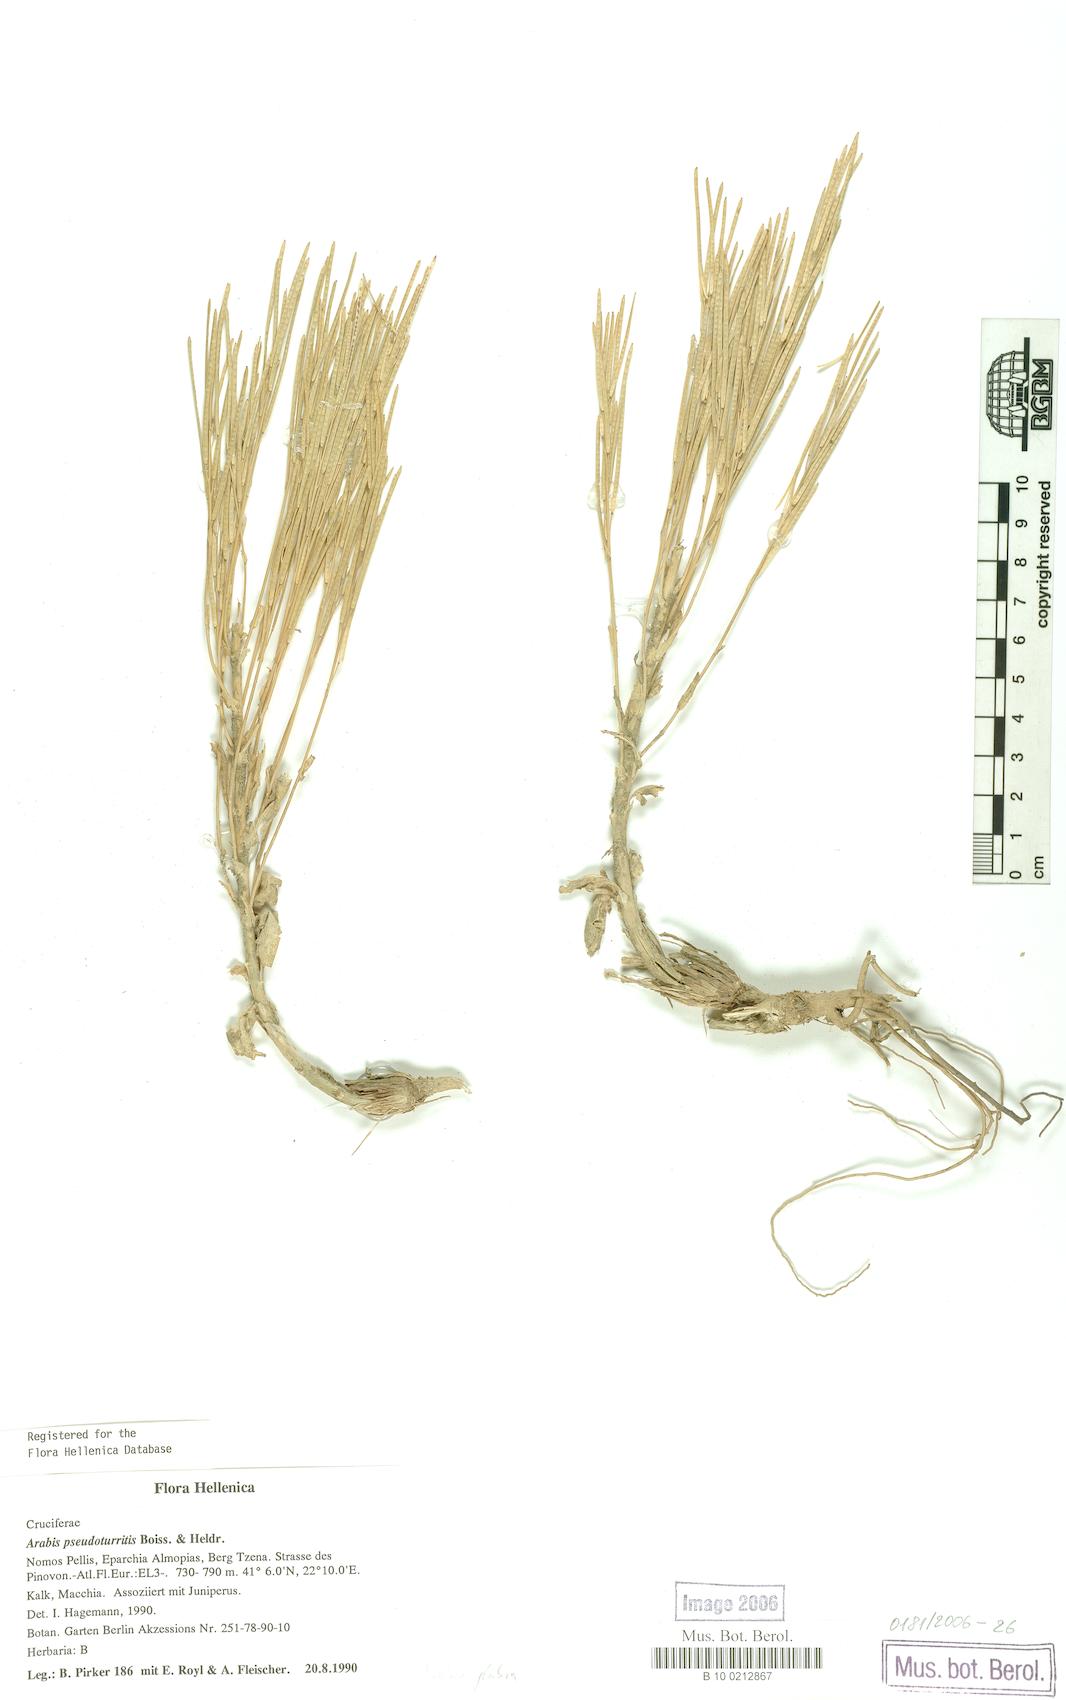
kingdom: Plantae
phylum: Tracheophyta
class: Magnoliopsida
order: Brassicales
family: Brassicaceae
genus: Turritis
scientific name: Turritis glabra
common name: Tower rockcress
